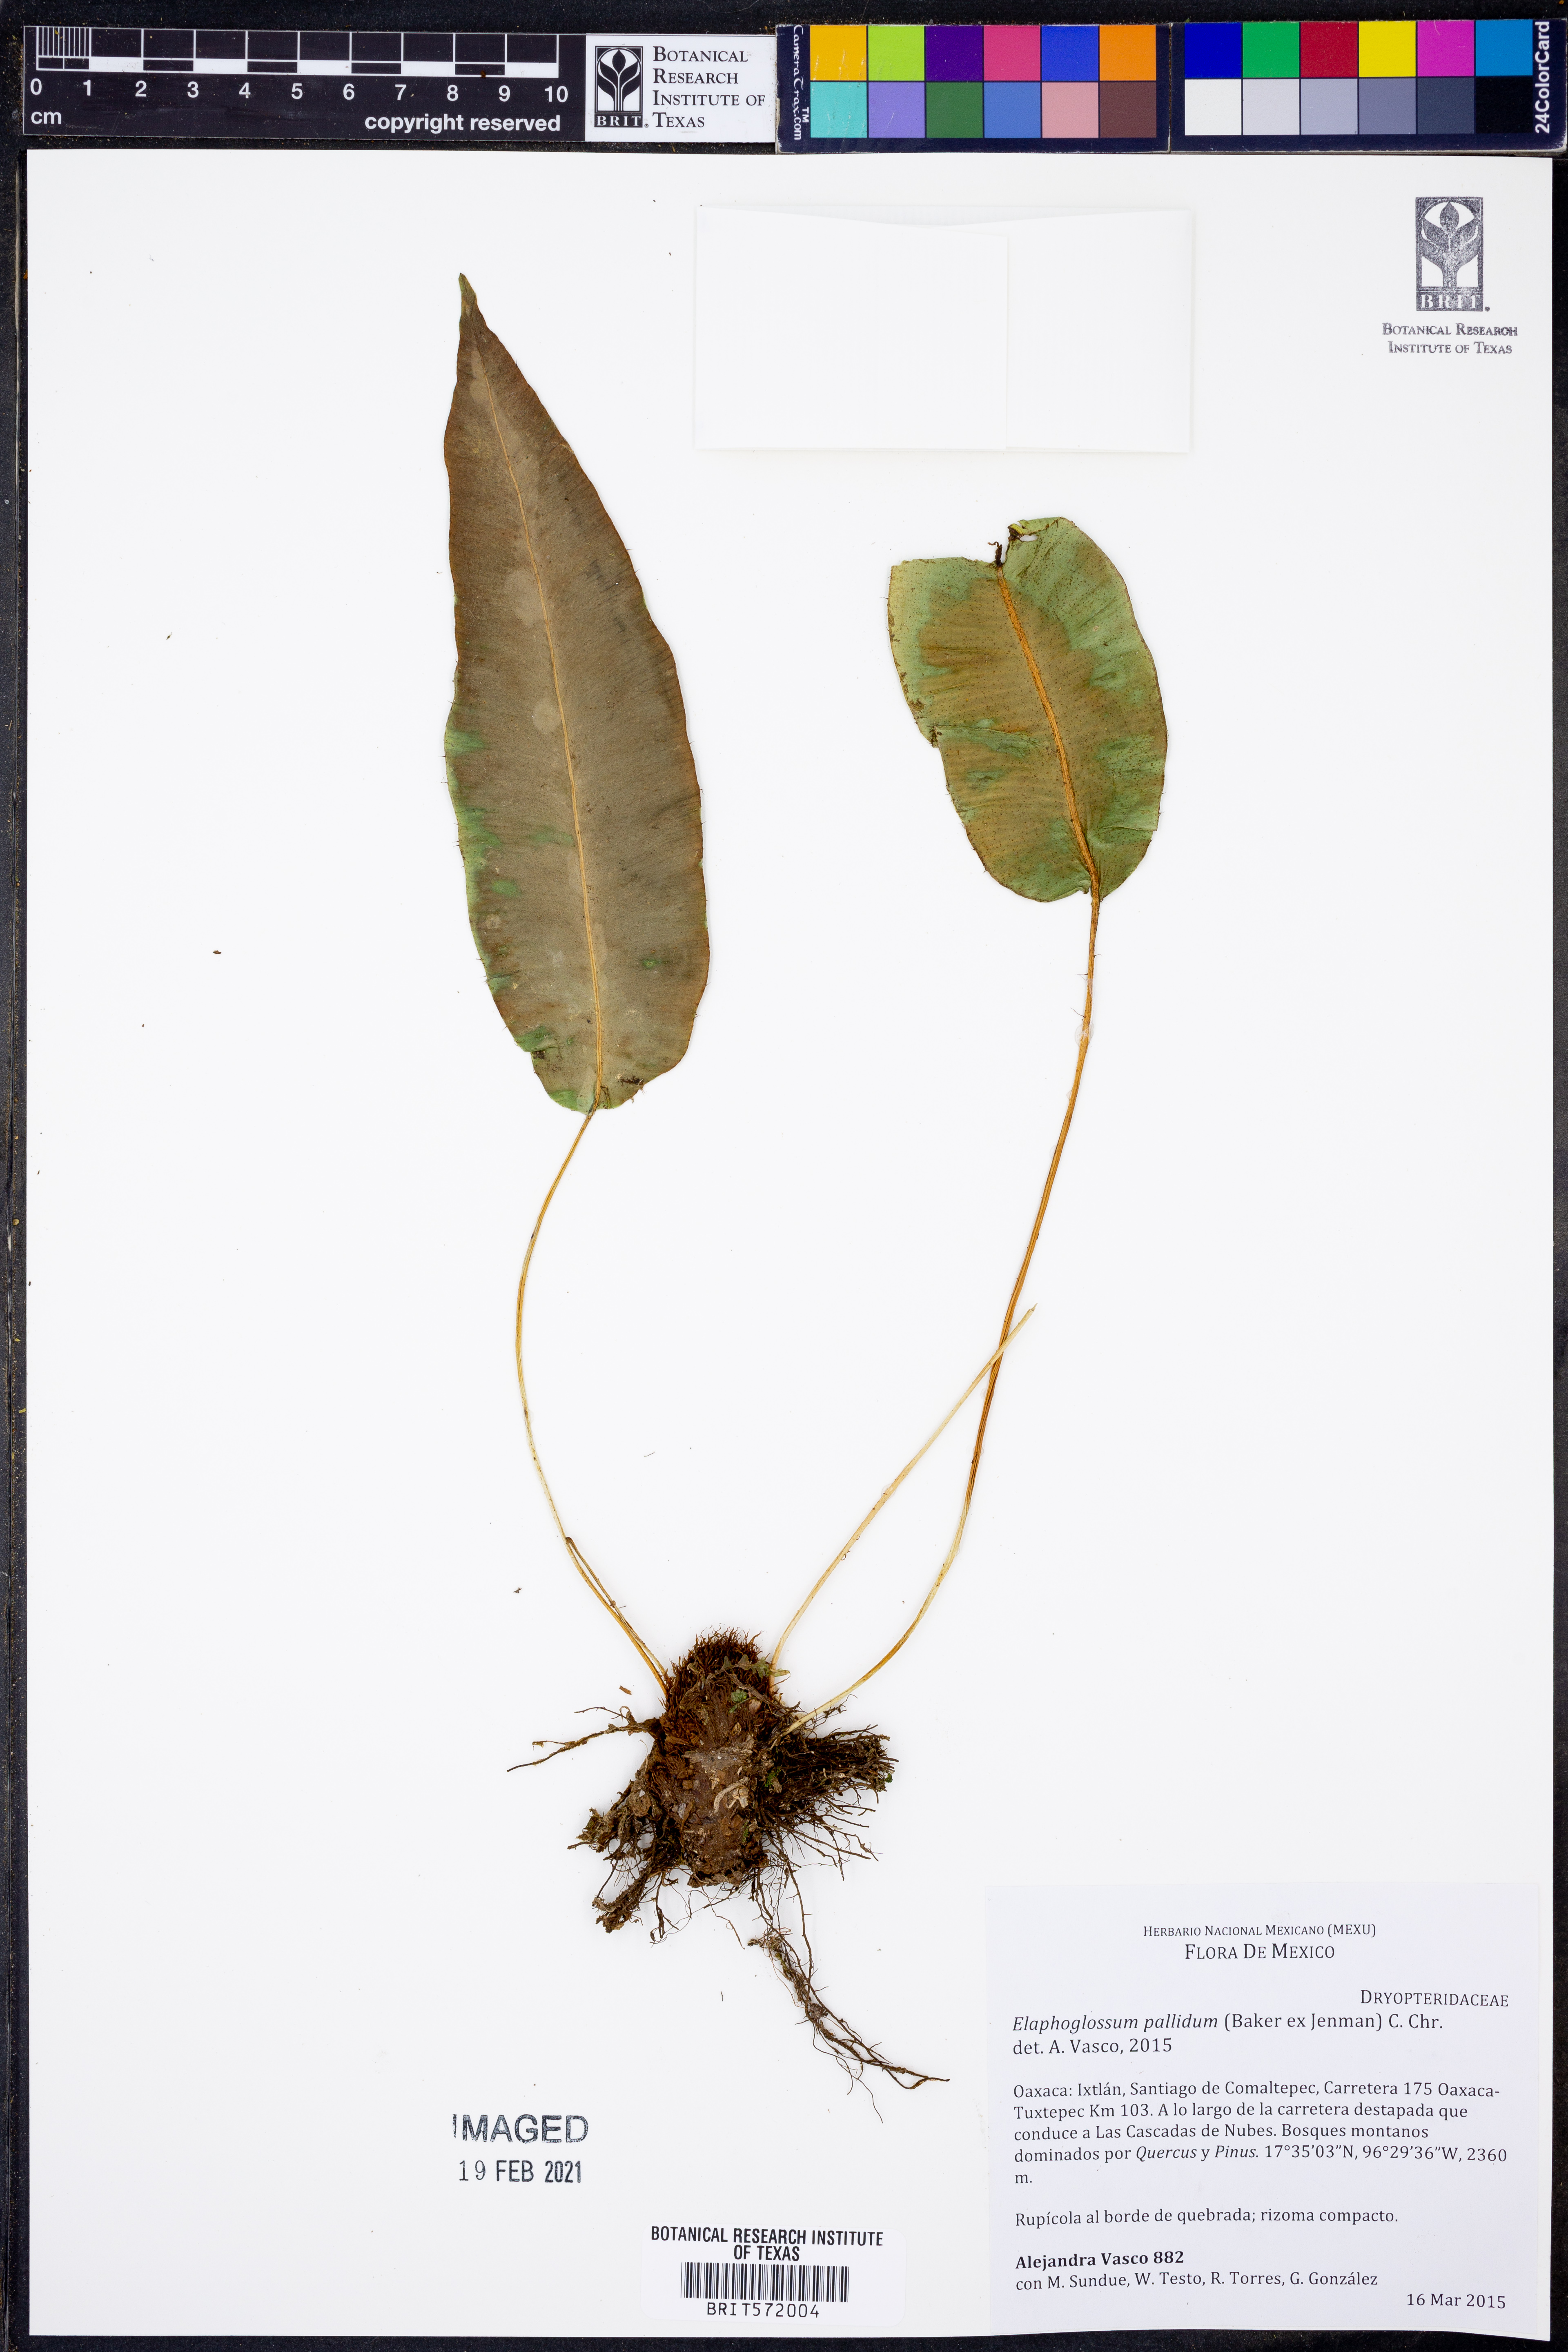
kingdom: Plantae
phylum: Tracheophyta
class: Polypodiopsida
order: Polypodiales
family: Dryopteridaceae
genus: Elaphoglossum
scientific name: Elaphoglossum pallidum
